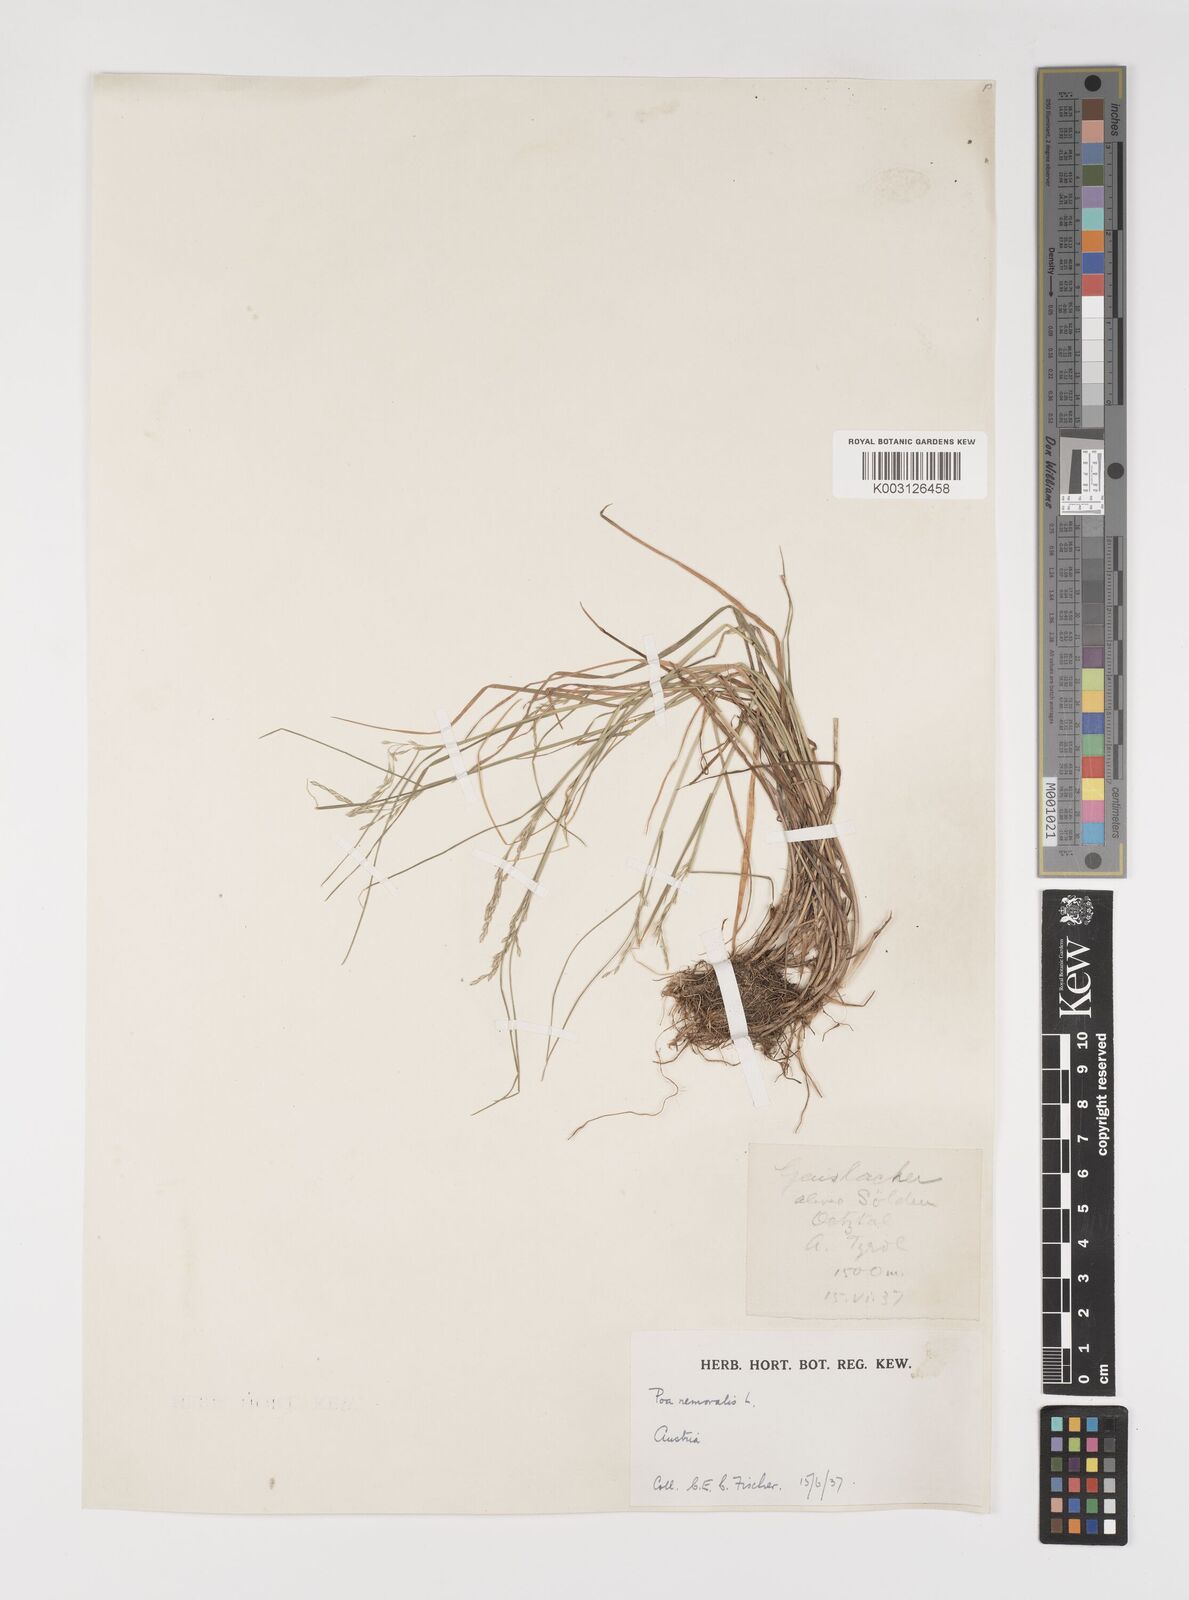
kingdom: Plantae
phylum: Tracheophyta
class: Liliopsida
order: Poales
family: Poaceae
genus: Poa
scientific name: Poa nemoralis
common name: Wood bluegrass
